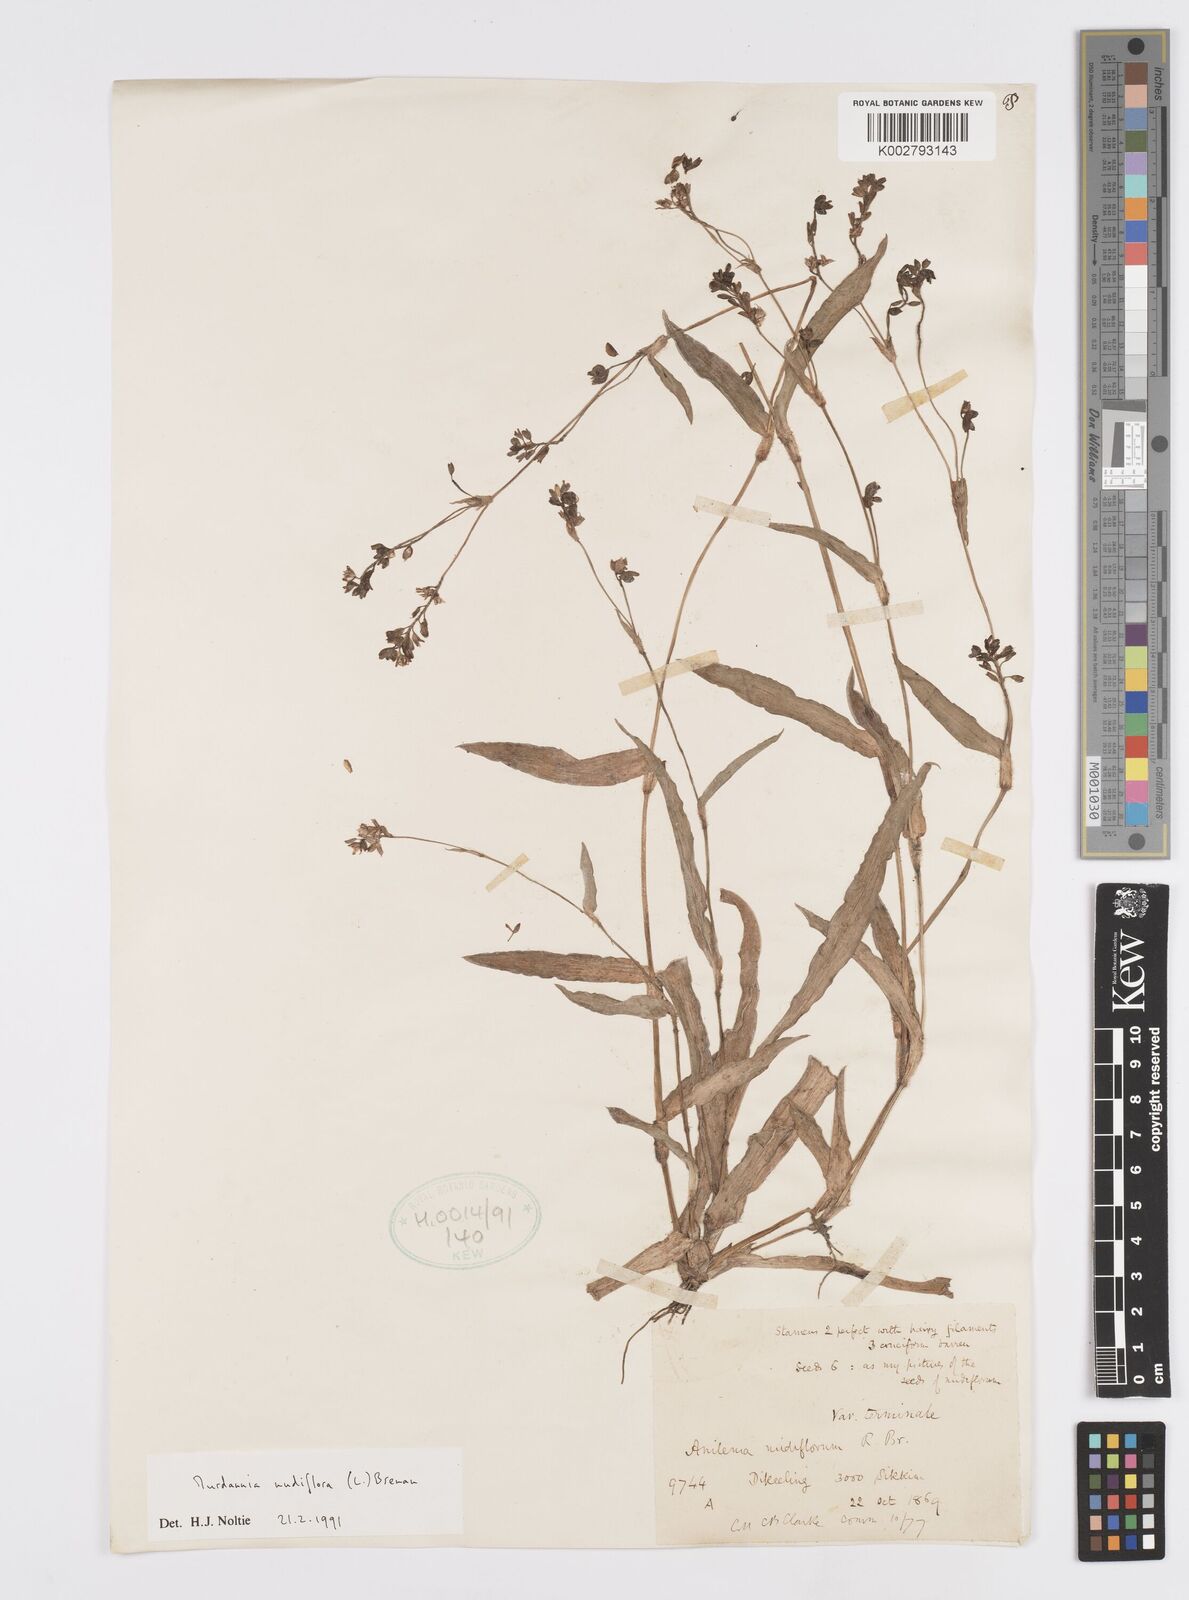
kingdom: Plantae
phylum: Tracheophyta
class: Liliopsida
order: Commelinales
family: Commelinaceae
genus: Murdannia
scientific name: Murdannia nudiflora
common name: Nakedstem dewflower
